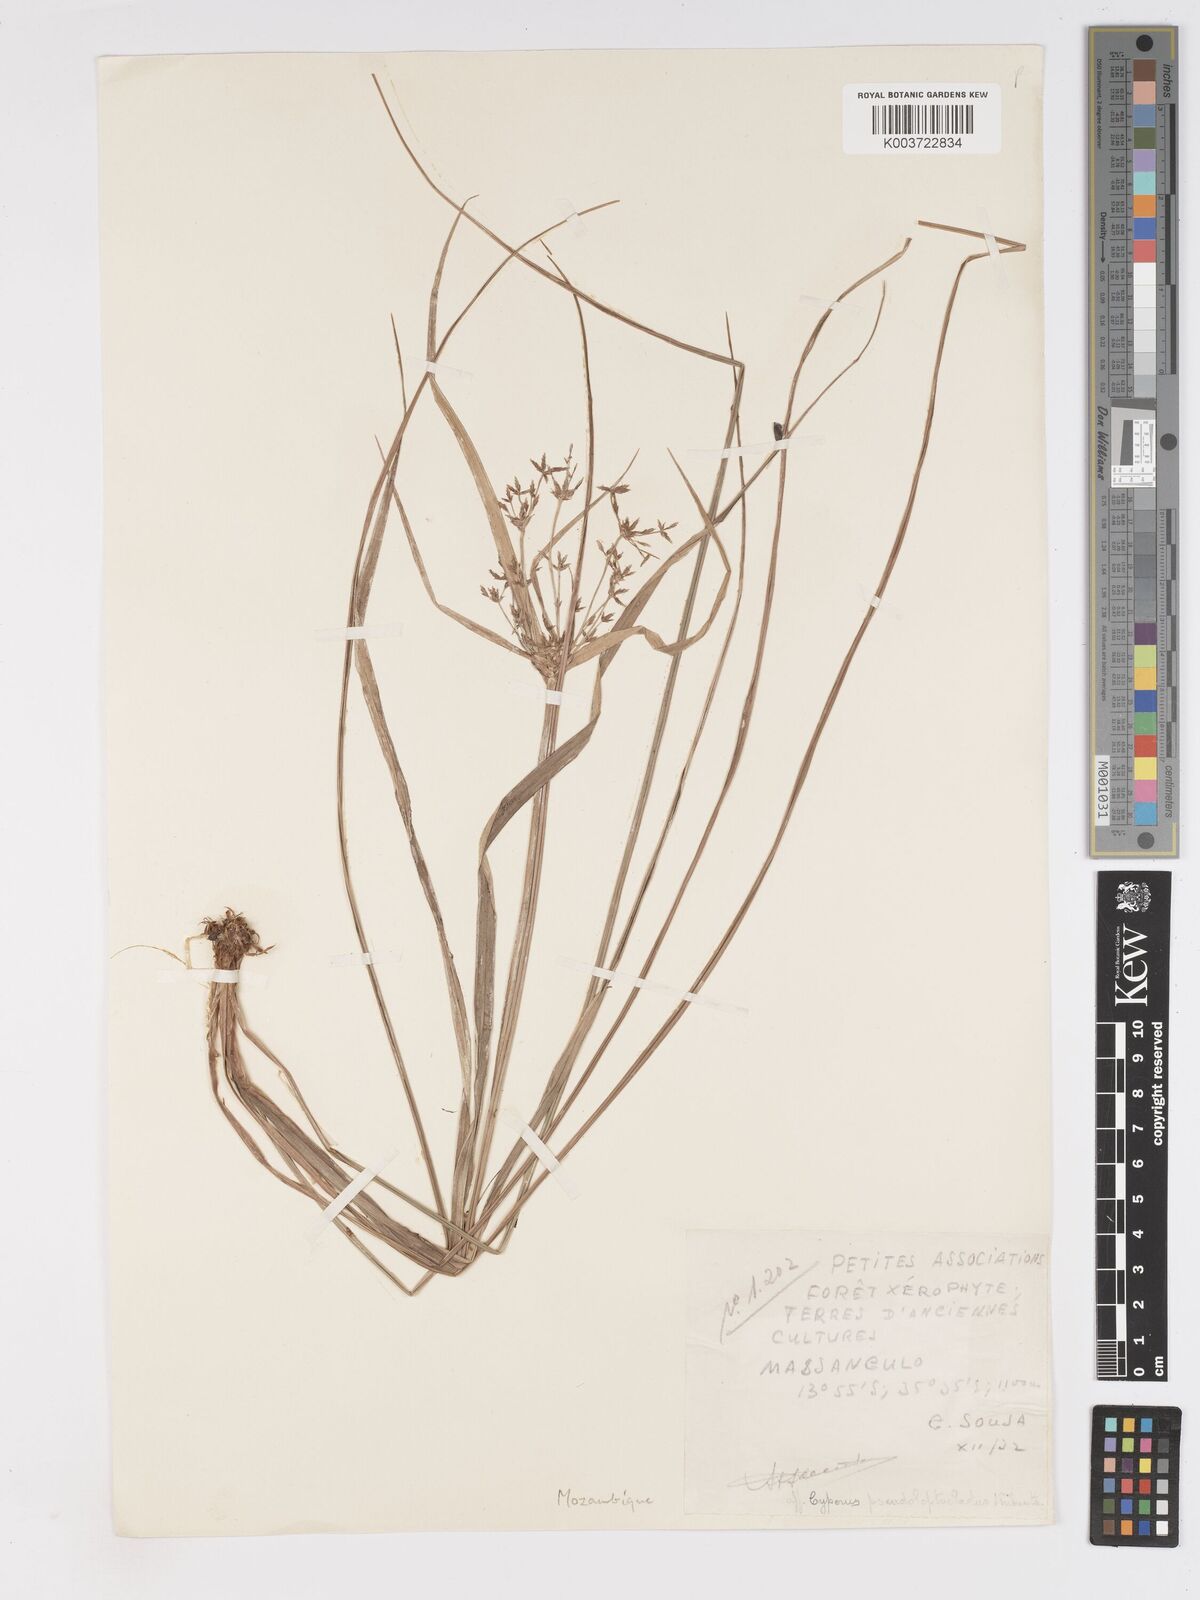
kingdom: Plantae
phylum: Tracheophyta
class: Liliopsida
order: Poales
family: Cyperaceae
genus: Cyperus
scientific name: Cyperus glaucophyllus
